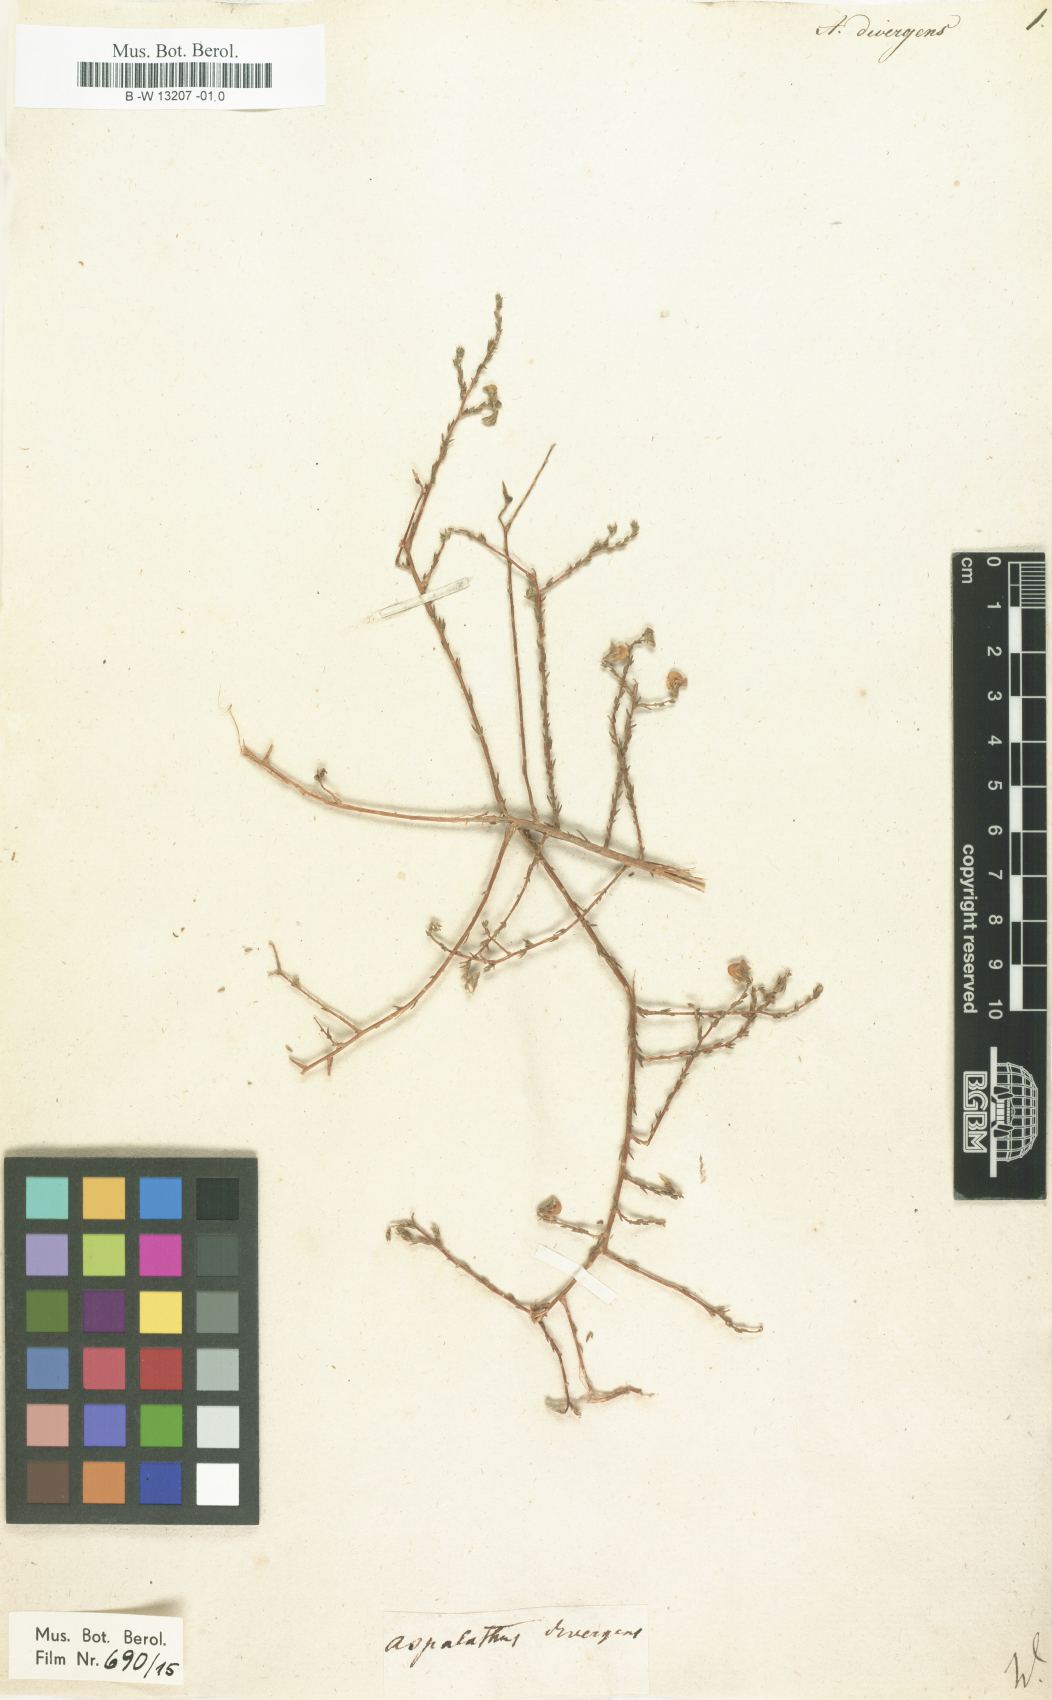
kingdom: Plantae
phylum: Tracheophyta
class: Magnoliopsida
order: Fabales
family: Fabaceae
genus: Aspalathus
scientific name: Aspalathus divergens
